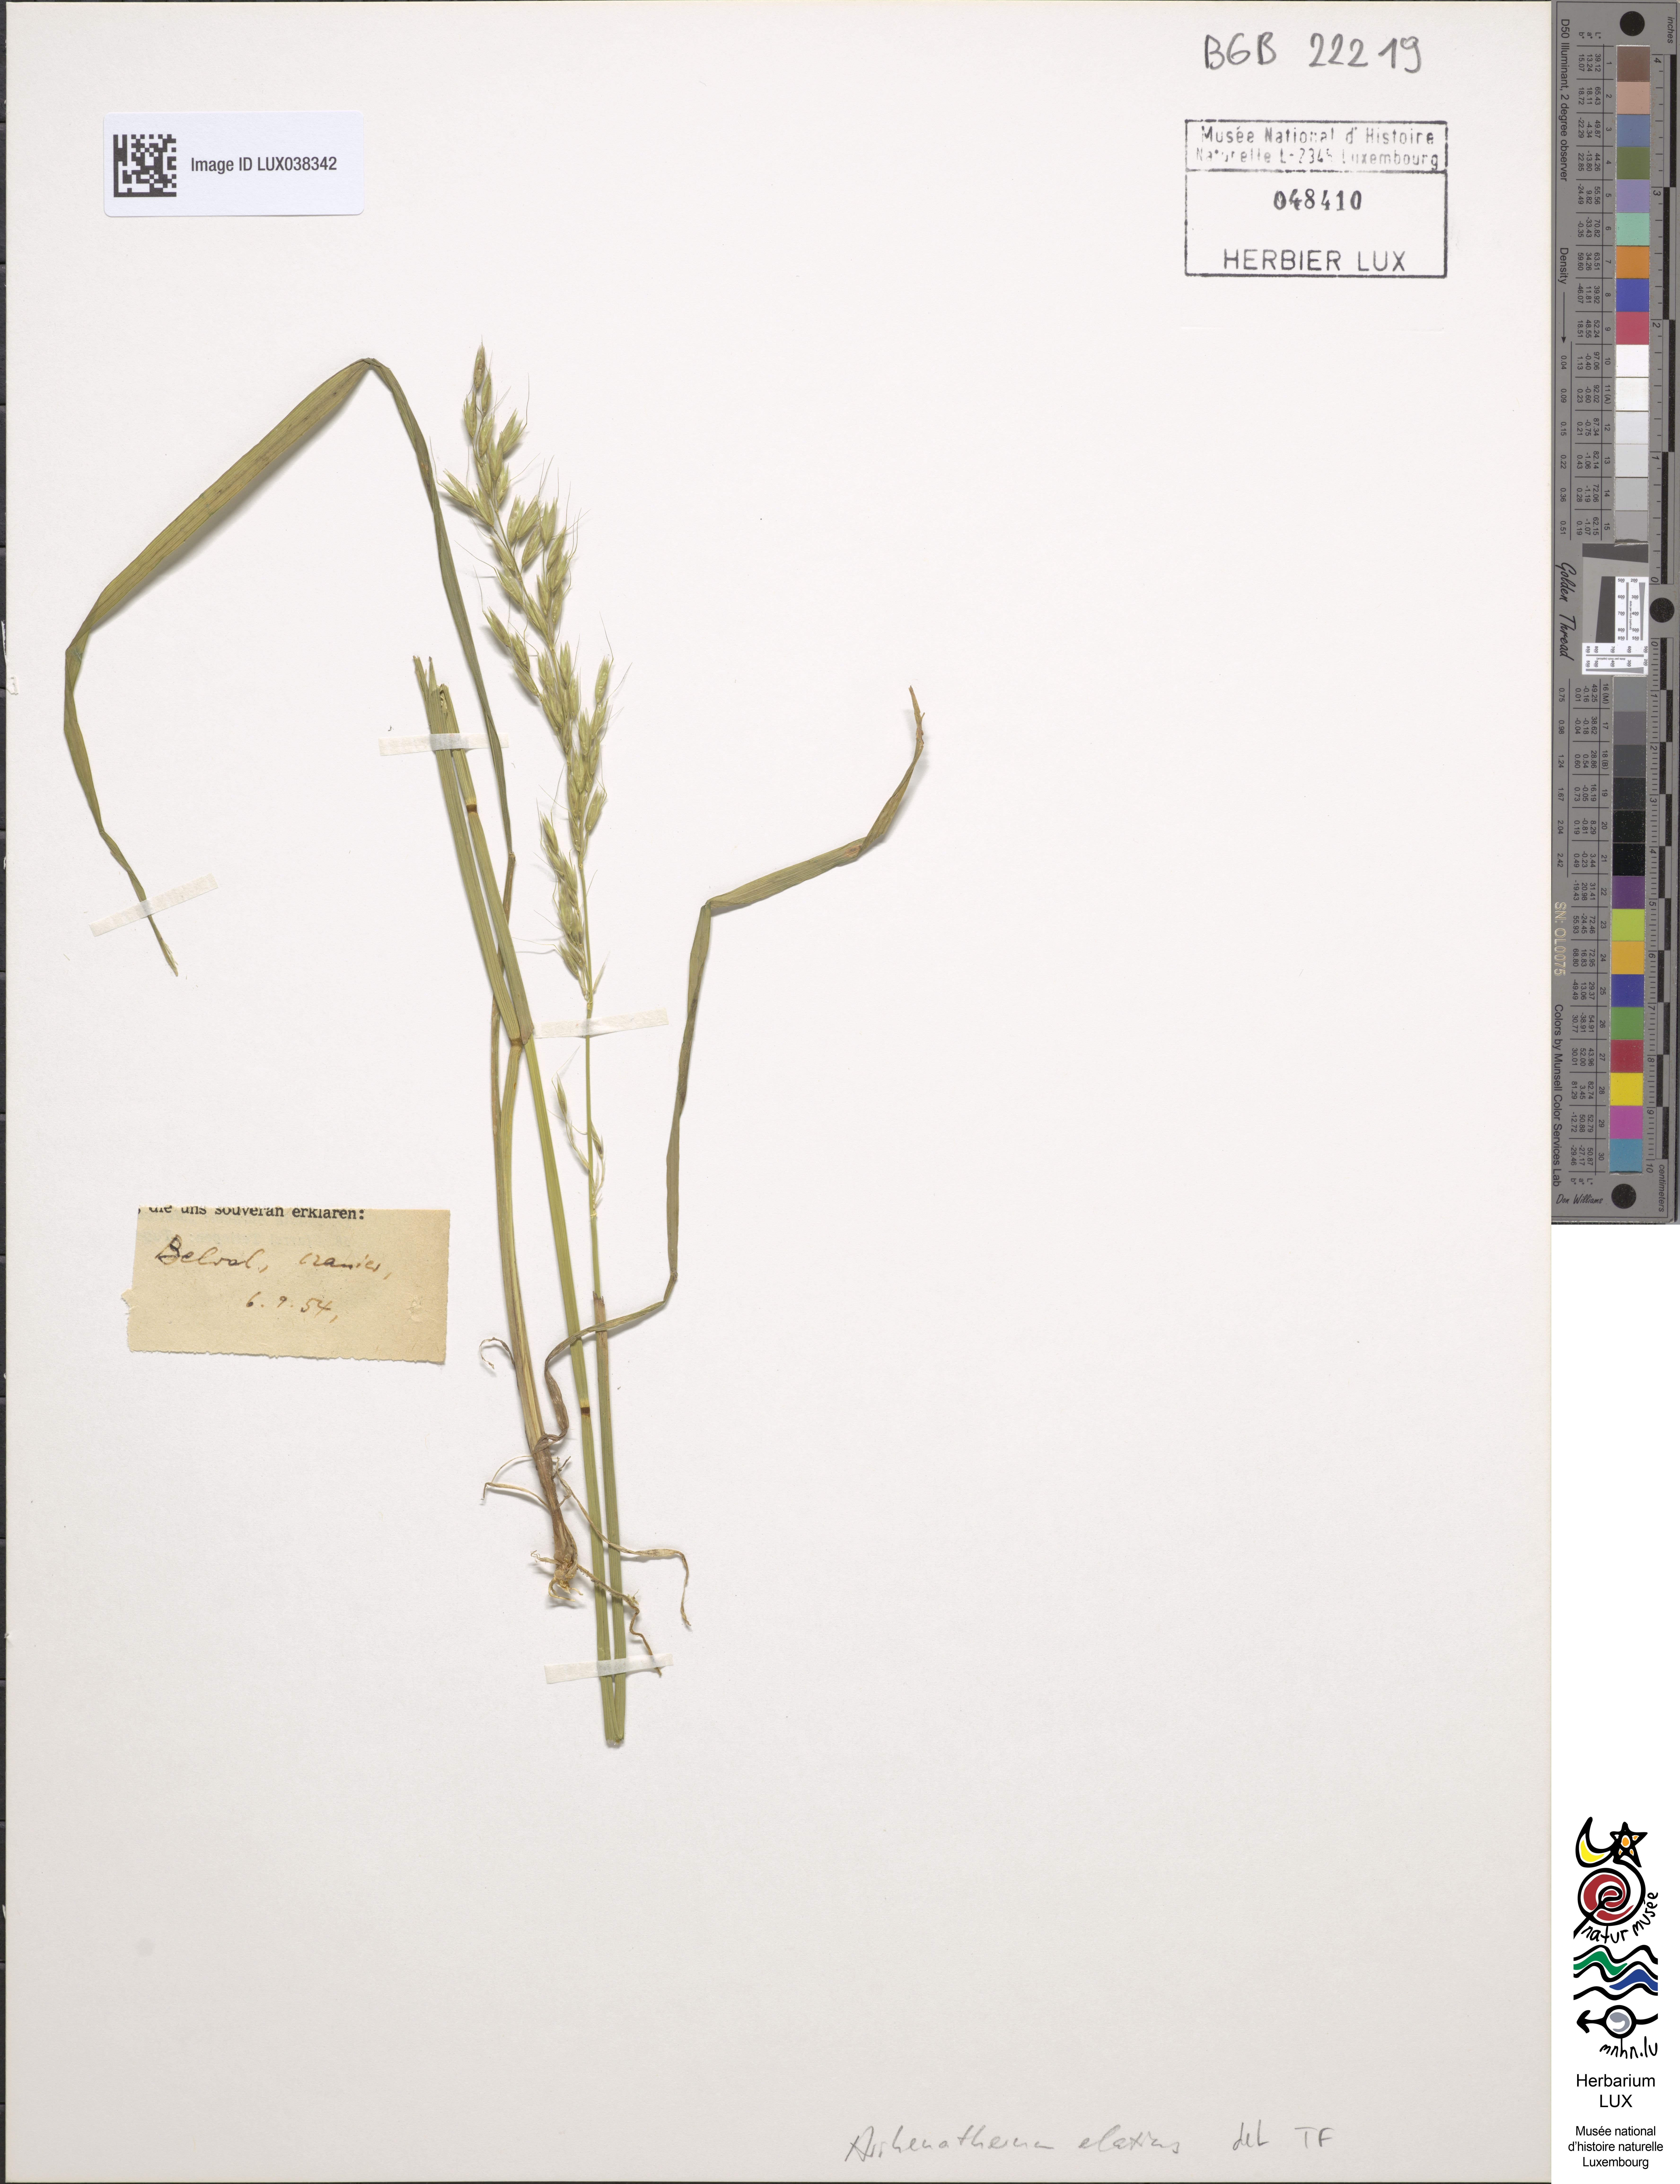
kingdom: Plantae
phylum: Tracheophyta
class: Liliopsida
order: Poales
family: Poaceae
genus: Arrhenatherum
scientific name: Arrhenatherum elatius
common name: Tall oatgrass
